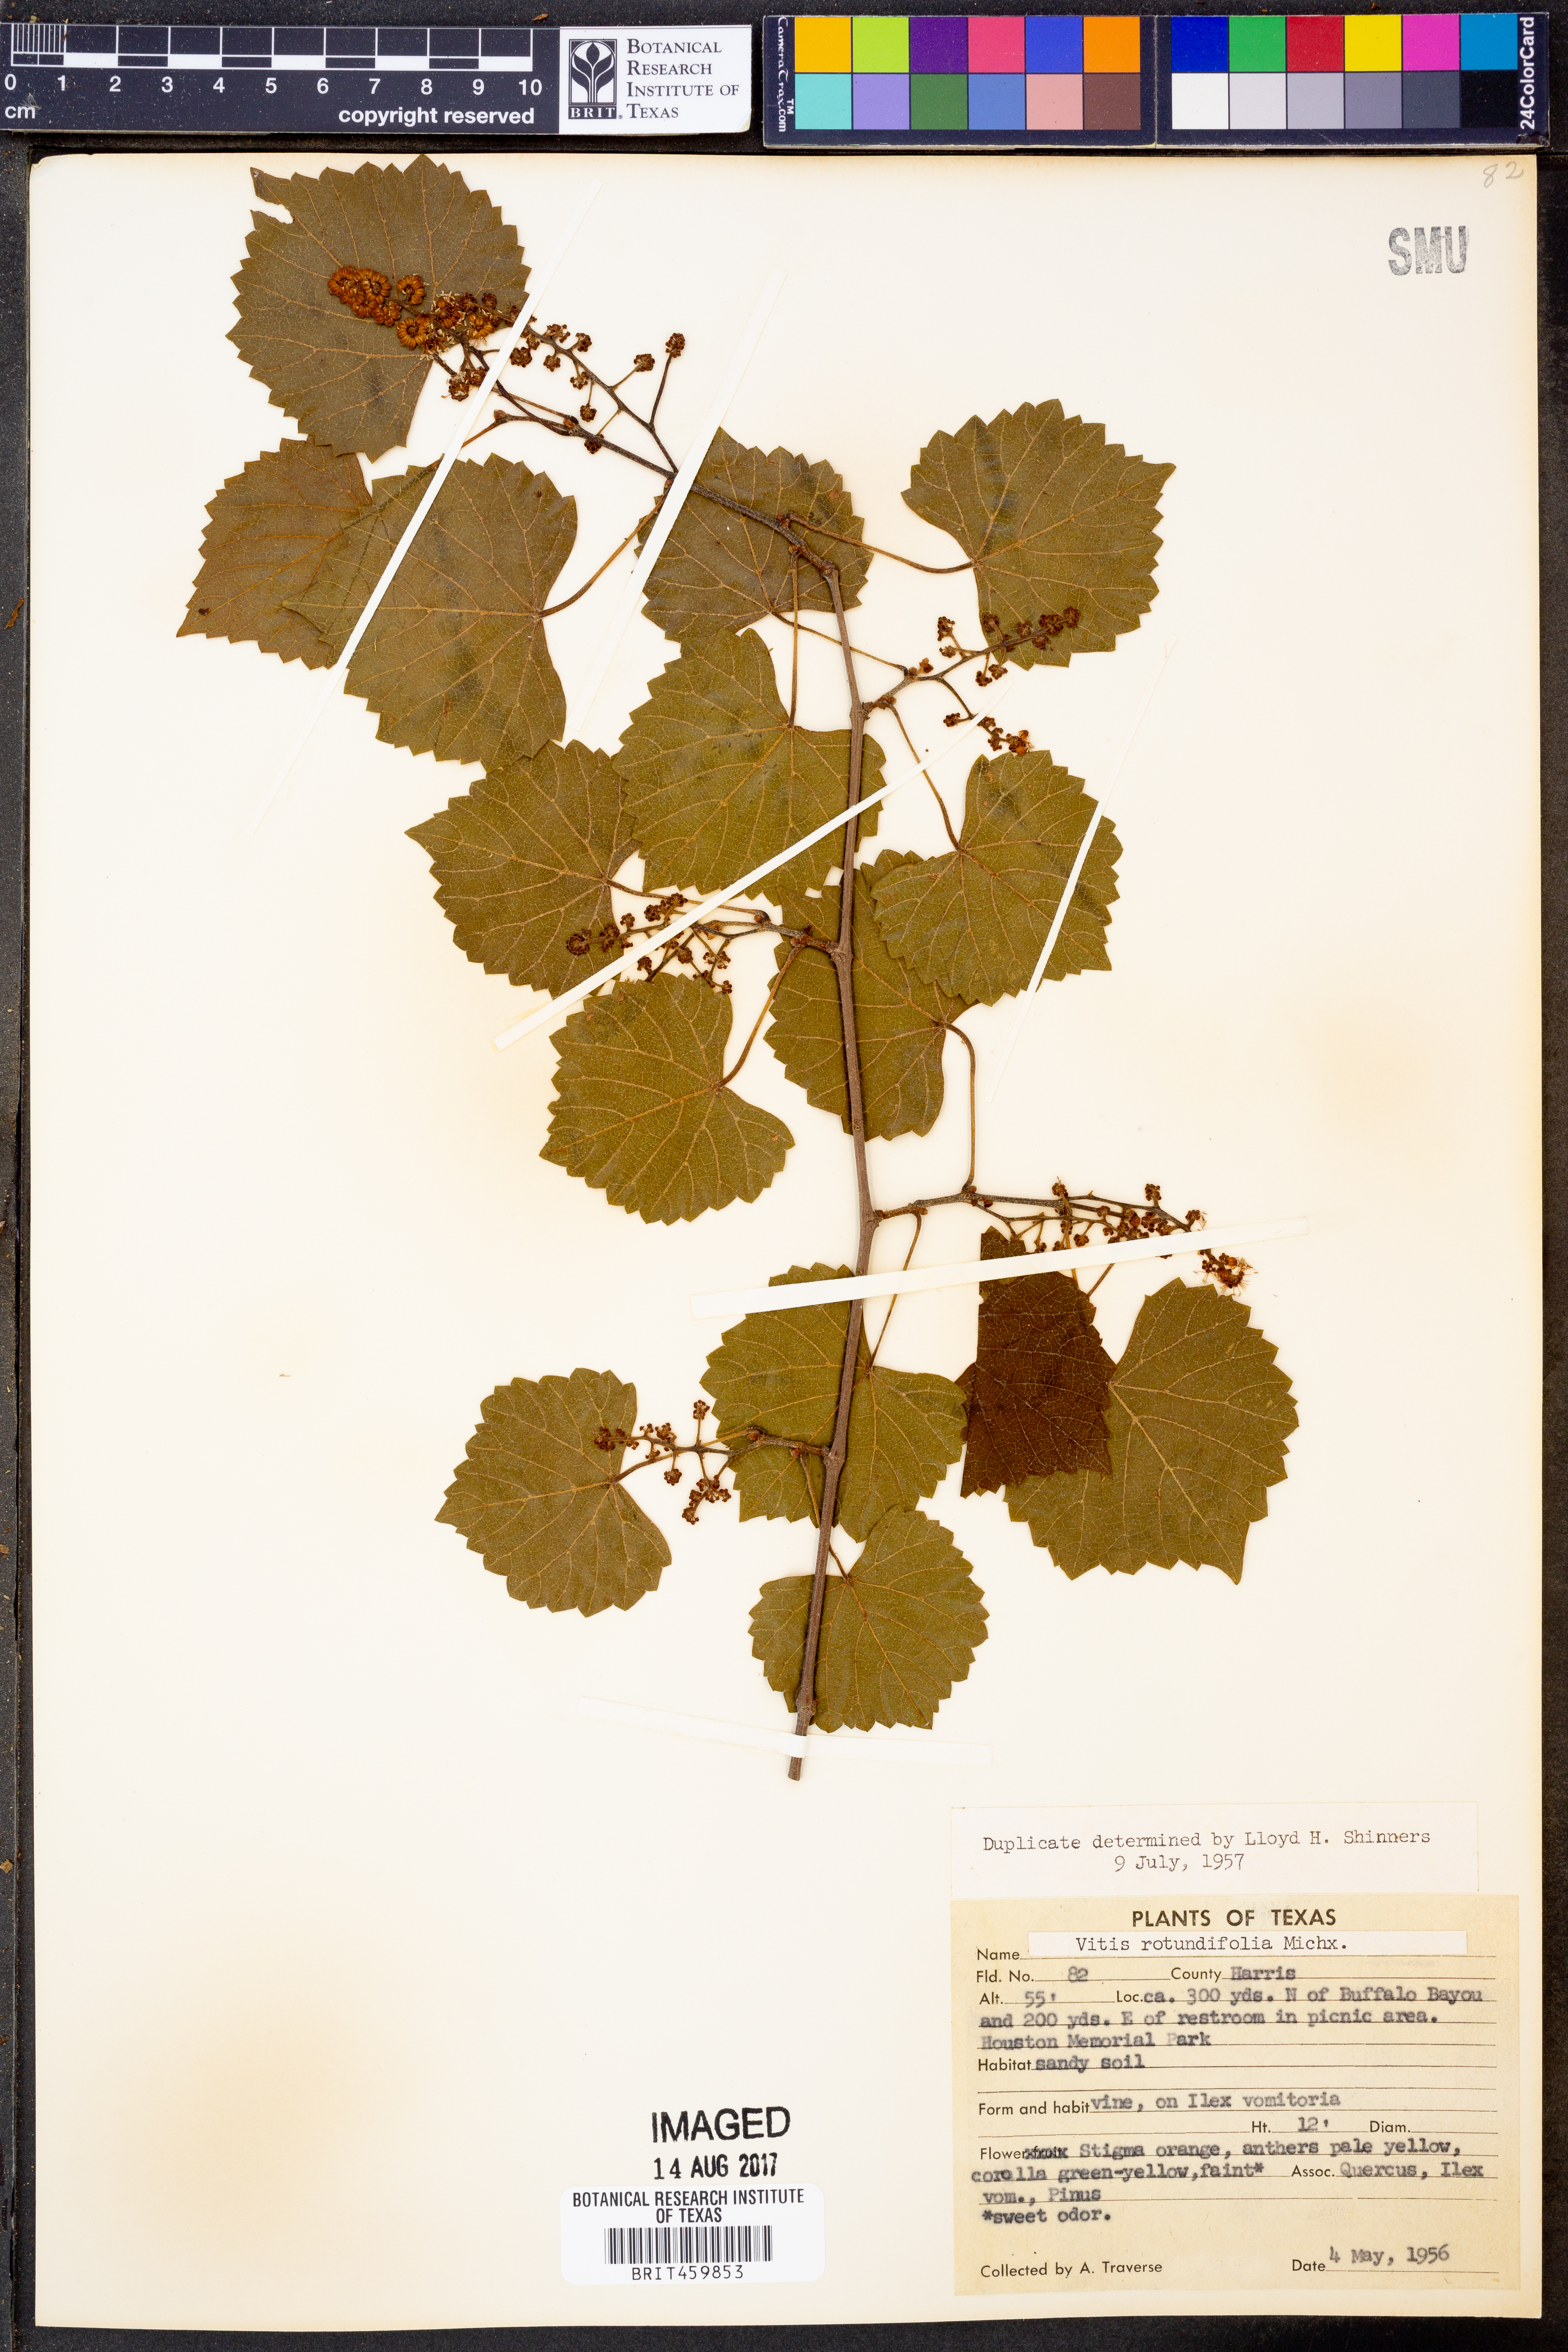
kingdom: Plantae
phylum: Tracheophyta
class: Magnoliopsida
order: Vitales
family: Vitaceae
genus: Vitis
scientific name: Vitis rotundifolia
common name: Muscadine grape
